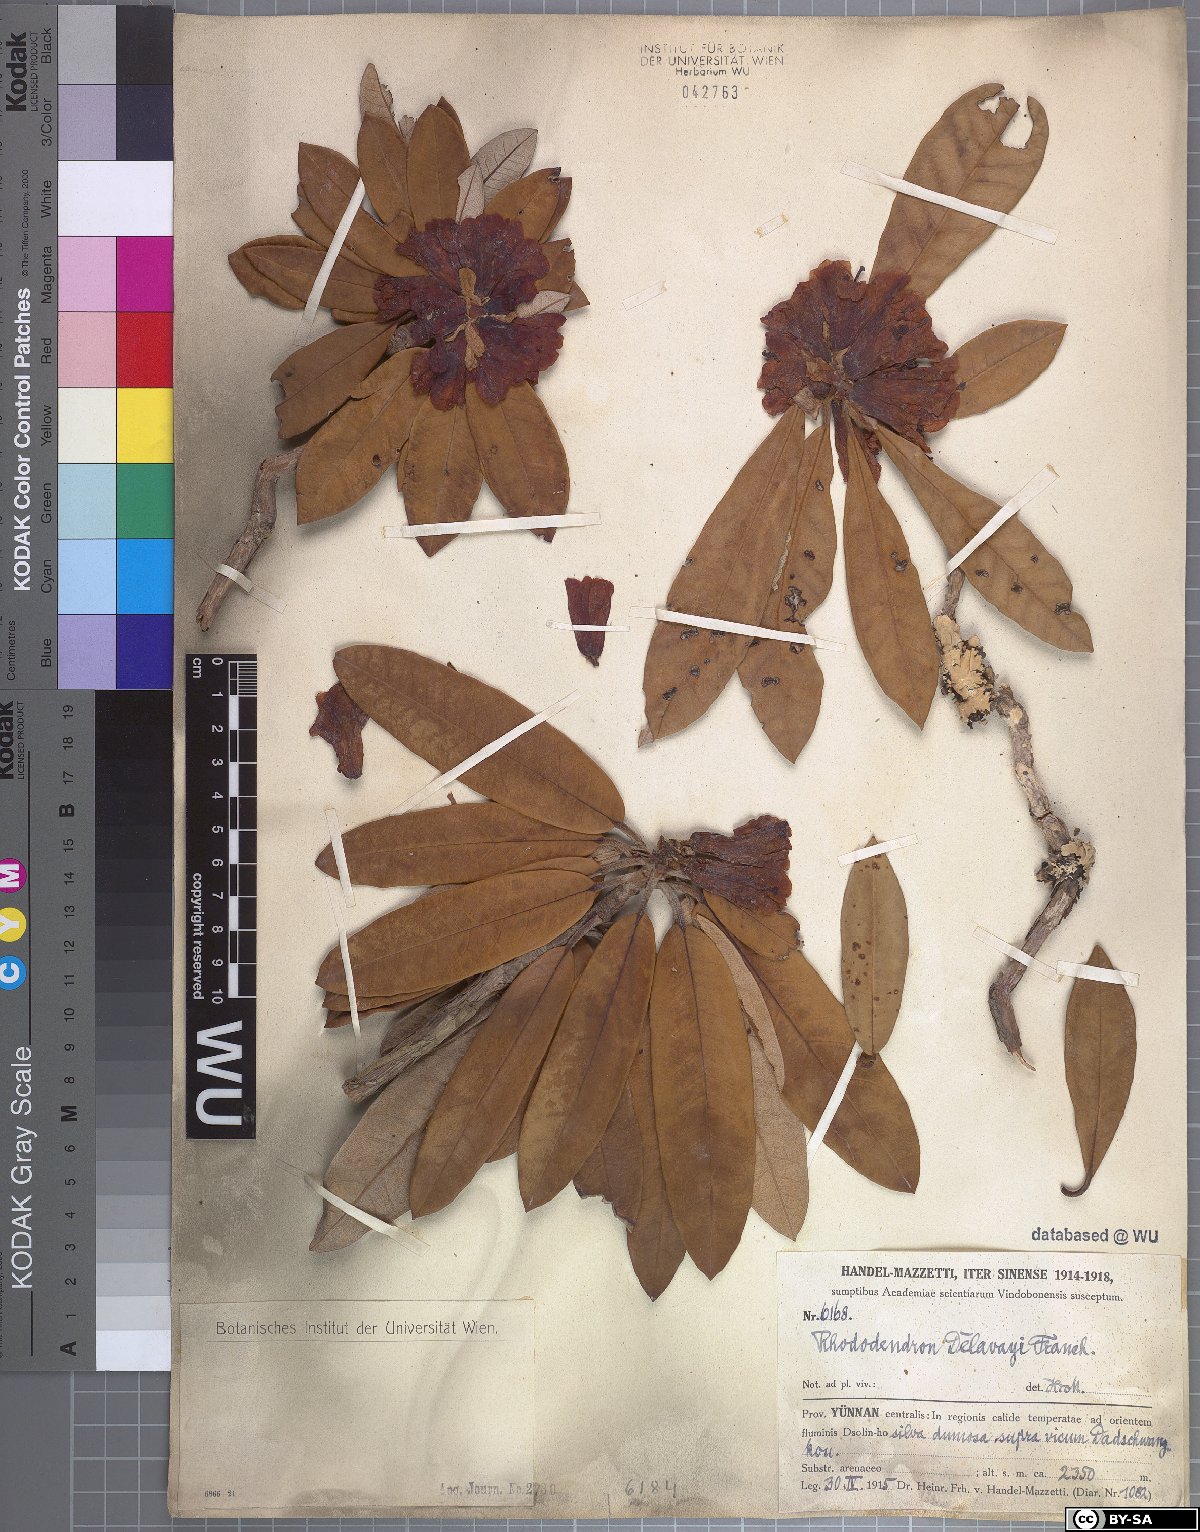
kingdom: Plantae
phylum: Tracheophyta
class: Magnoliopsida
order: Ericales
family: Ericaceae
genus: Rhododendron
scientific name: Rhododendron delavayi
